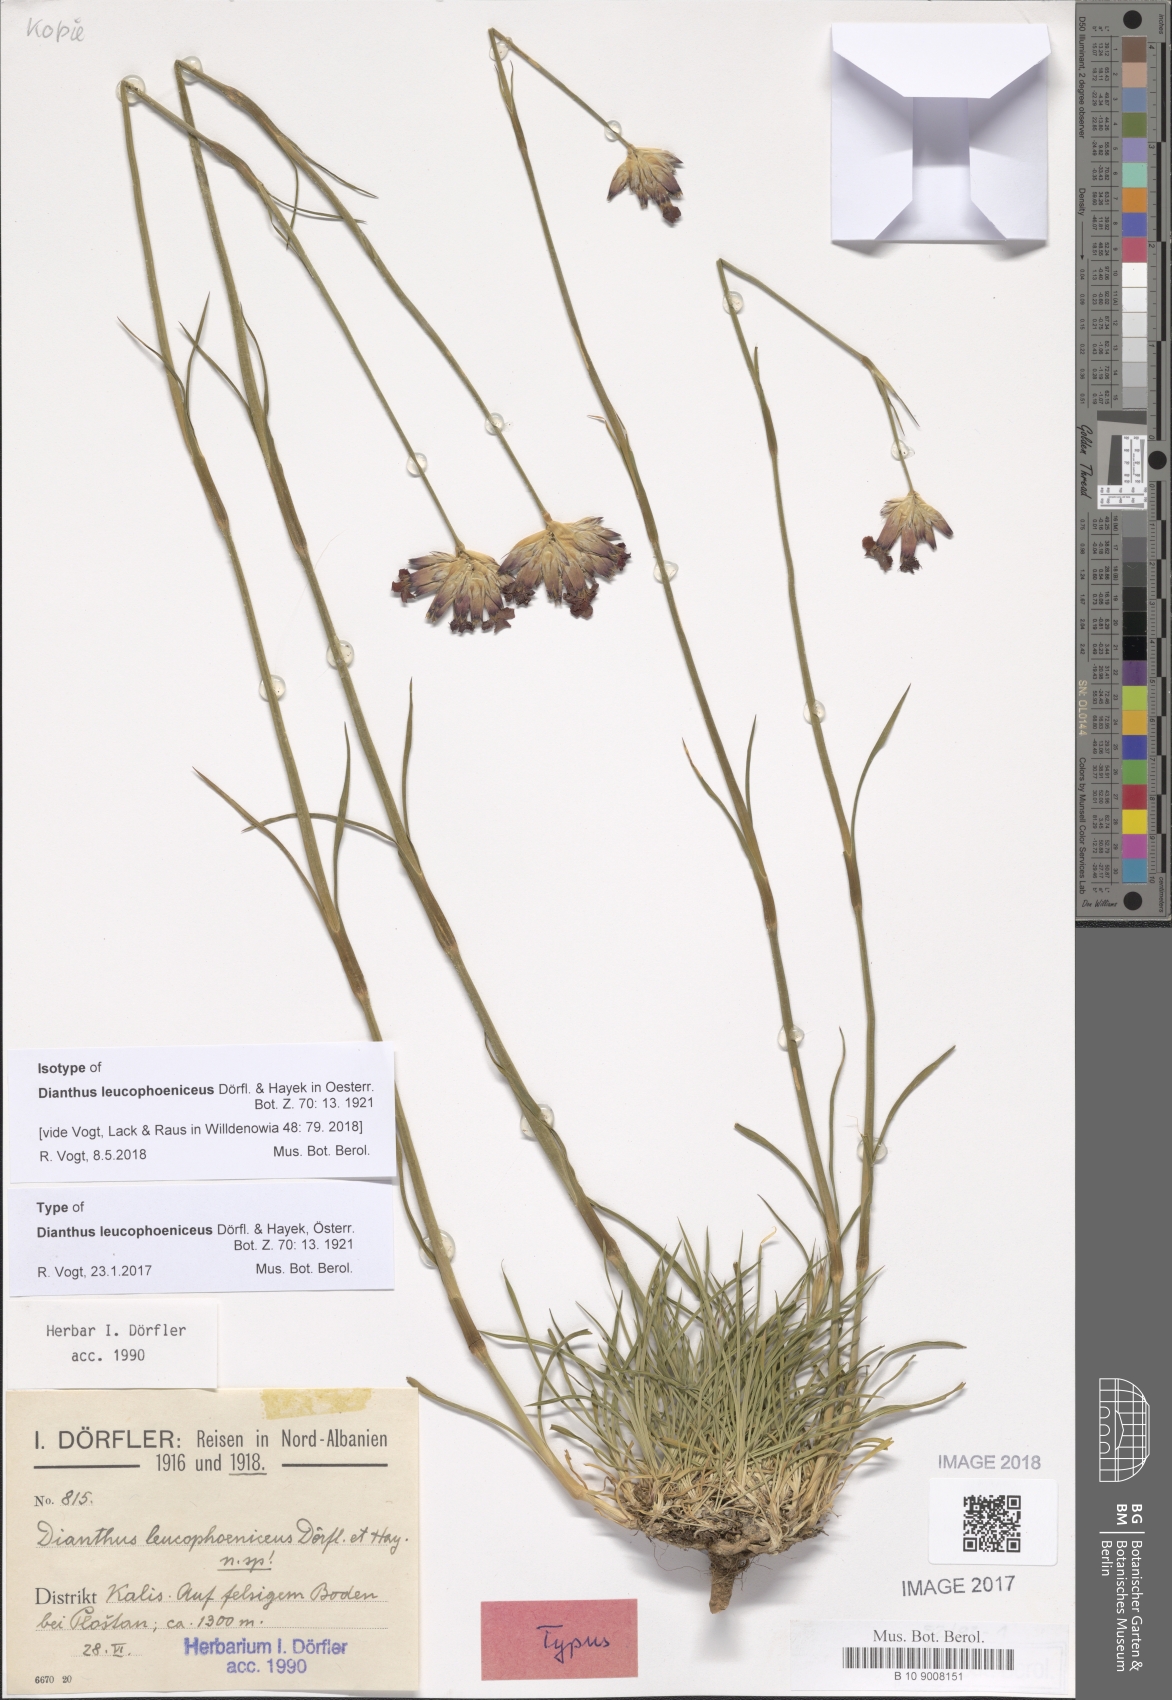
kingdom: Plantae
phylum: Tracheophyta
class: Magnoliopsida
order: Caryophyllales
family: Caryophyllaceae
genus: Dianthus
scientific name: Dianthus leucophoeniceus
